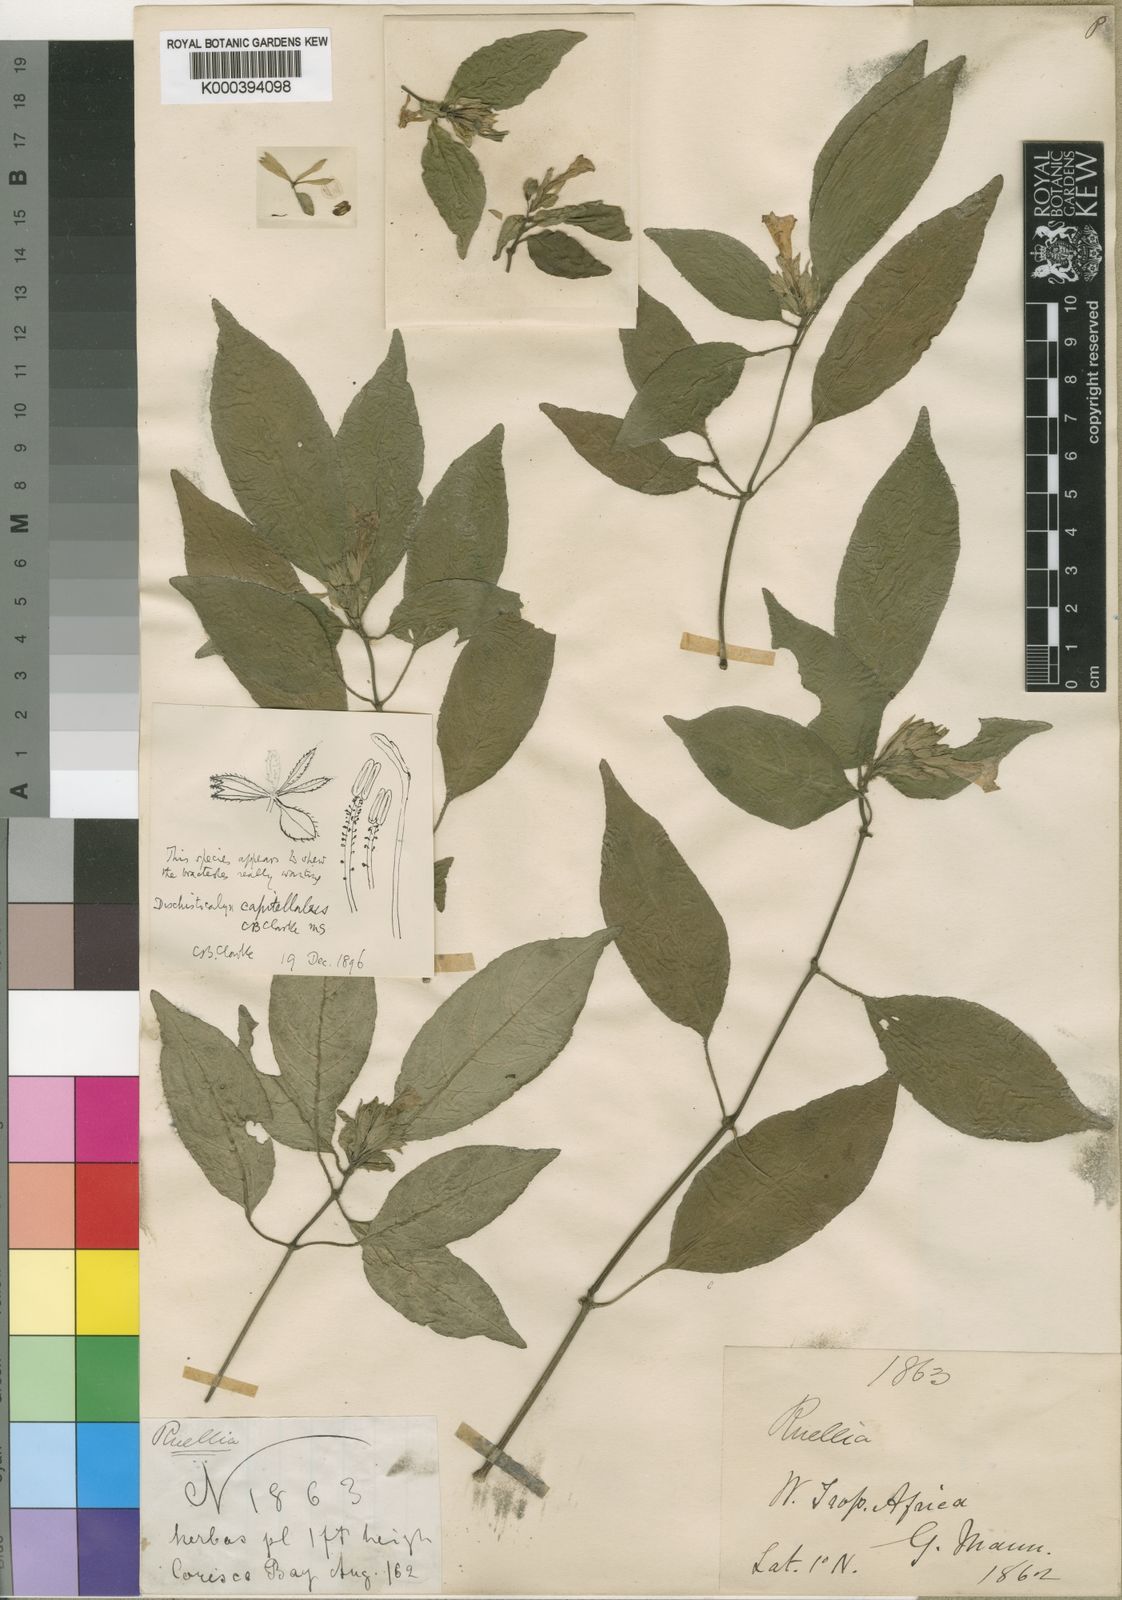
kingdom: Plantae
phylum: Tracheophyta
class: Magnoliopsida
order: Lamiales
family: Acanthaceae
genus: Dischistocalyx
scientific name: Dischistocalyx strobilinus
